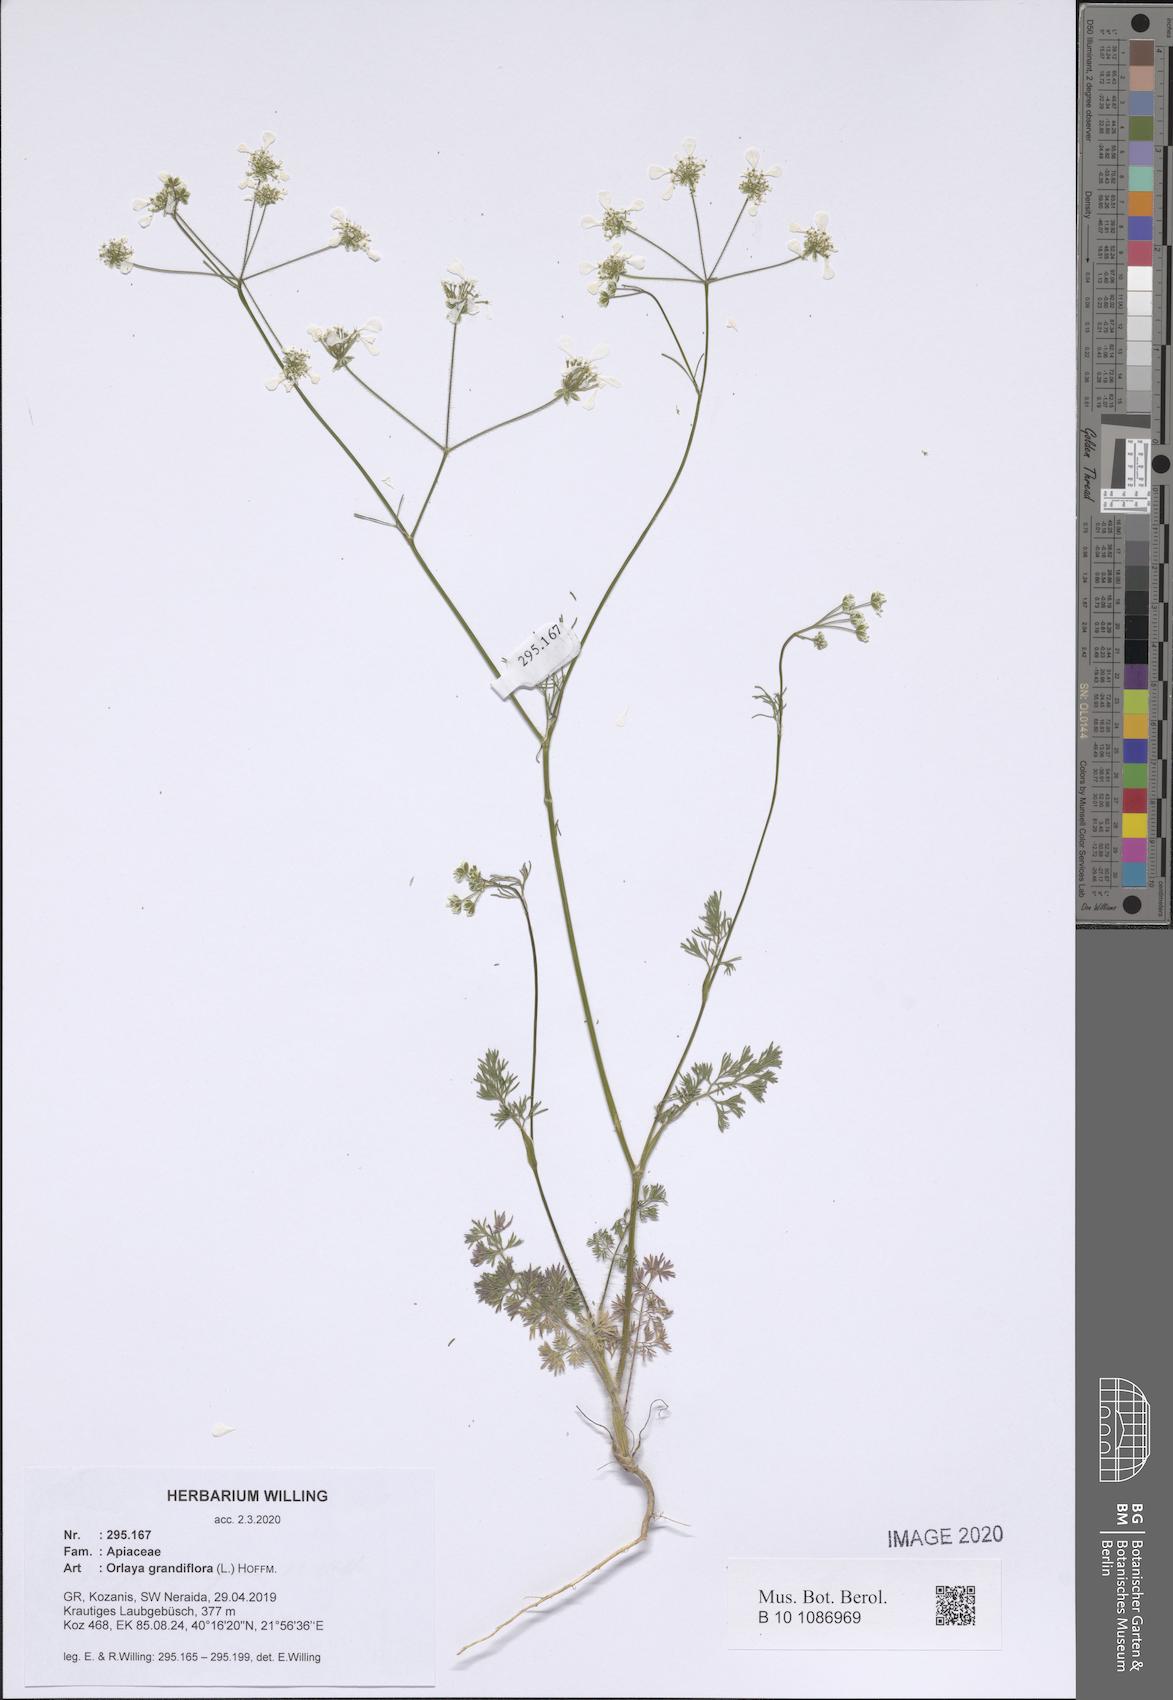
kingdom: Plantae
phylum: Tracheophyta
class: Magnoliopsida
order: Apiales
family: Apiaceae
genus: Orlaya
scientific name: Orlaya grandiflora
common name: White lace flower
